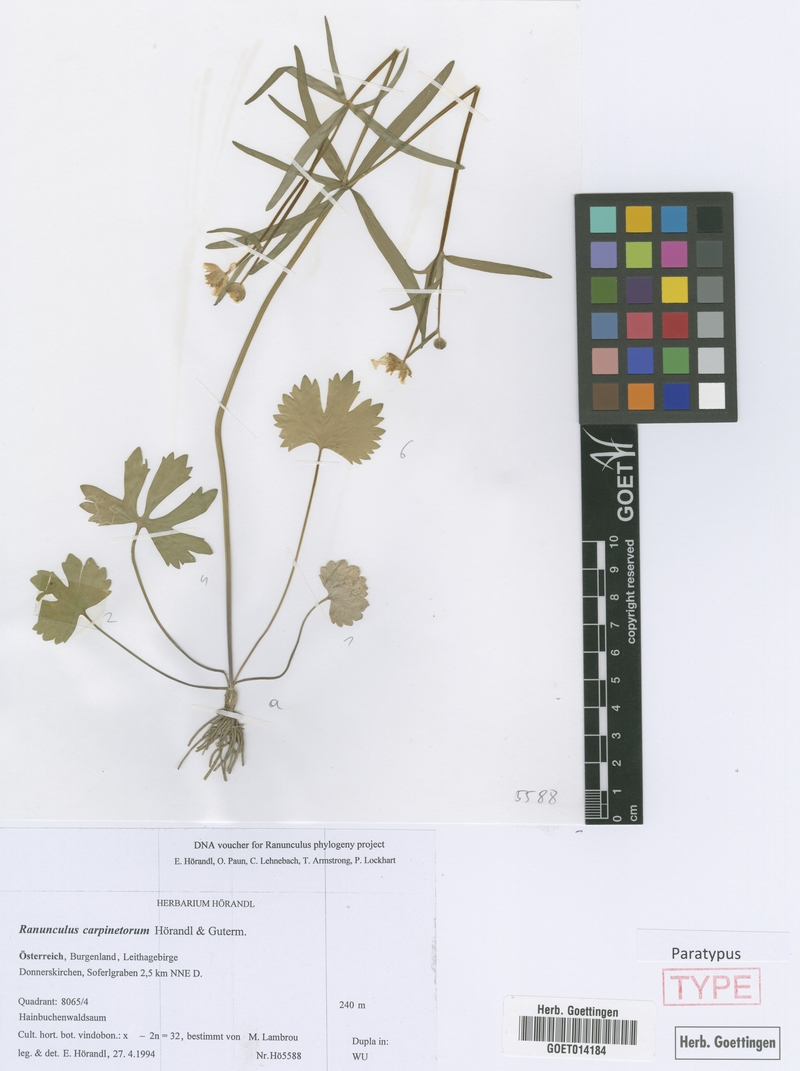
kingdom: Plantae
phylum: Tracheophyta
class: Magnoliopsida
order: Ranunculales
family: Ranunculaceae
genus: Ranunculus
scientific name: Ranunculus carpinetorum
